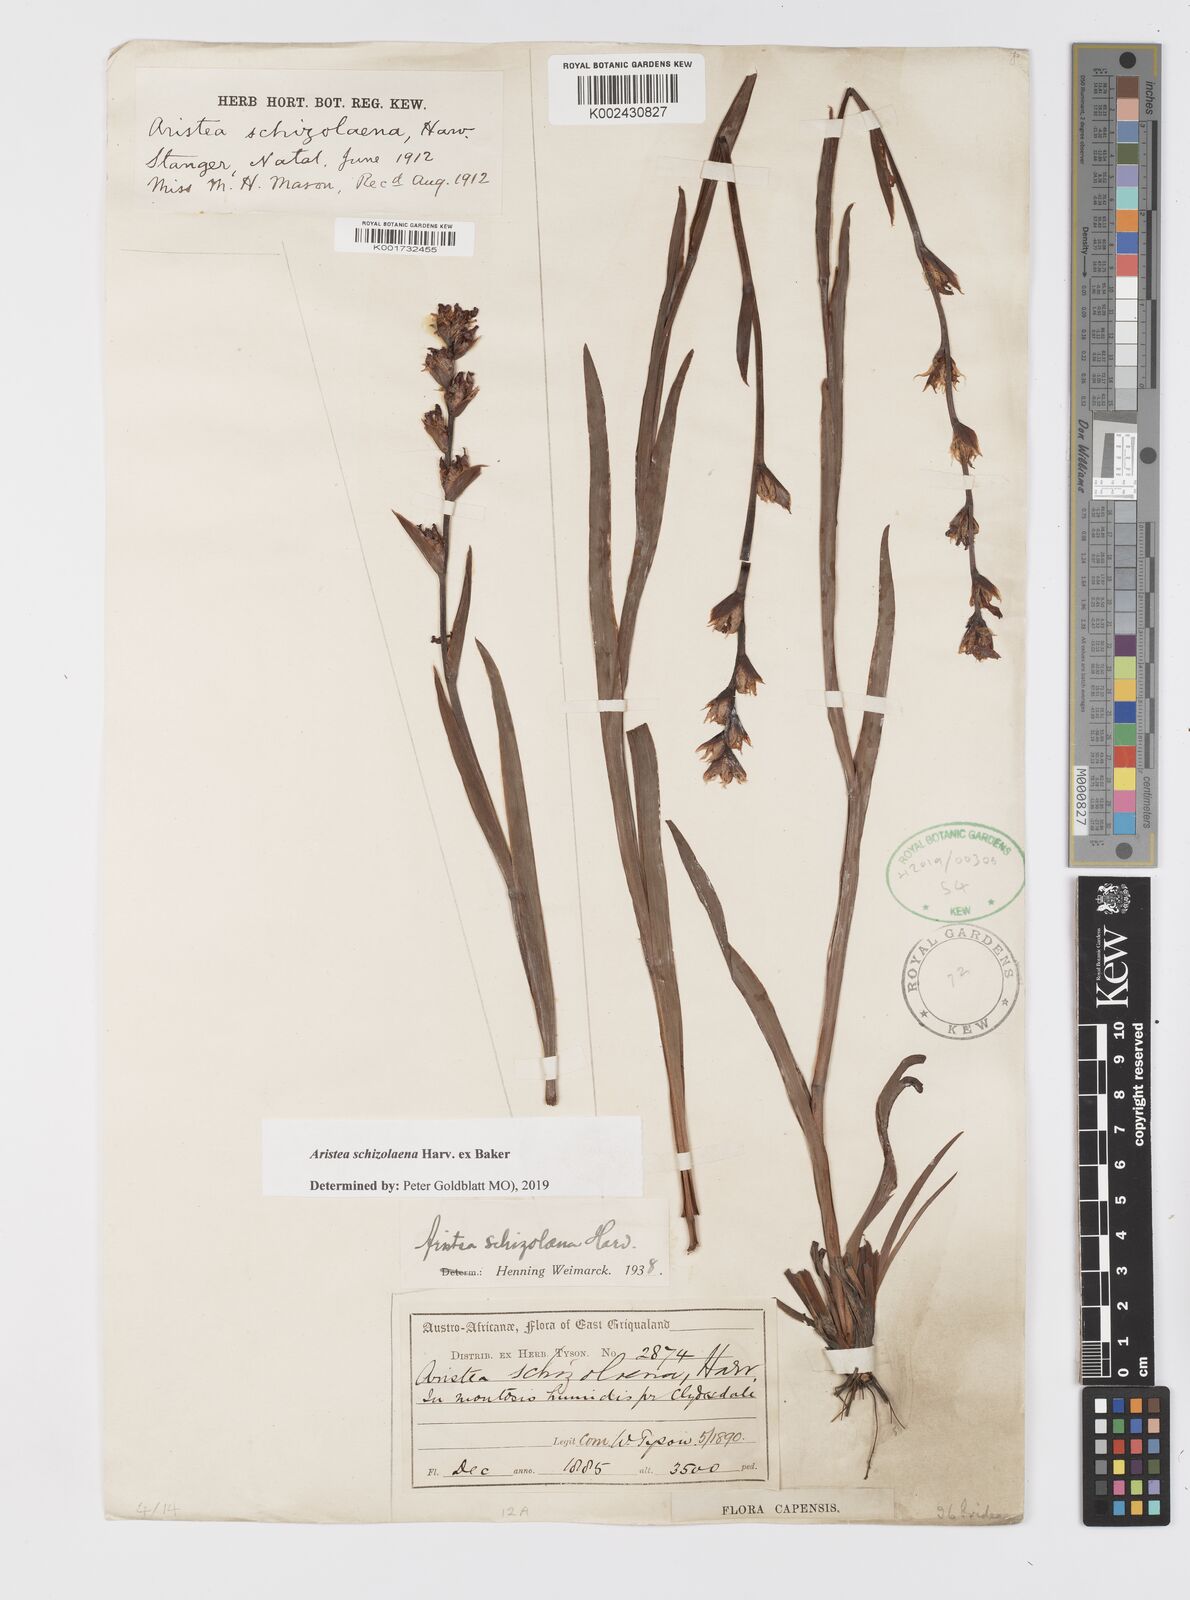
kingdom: Plantae
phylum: Tracheophyta
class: Liliopsida
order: Asparagales
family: Iridaceae
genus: Aristea
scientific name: Aristea schizolaena
